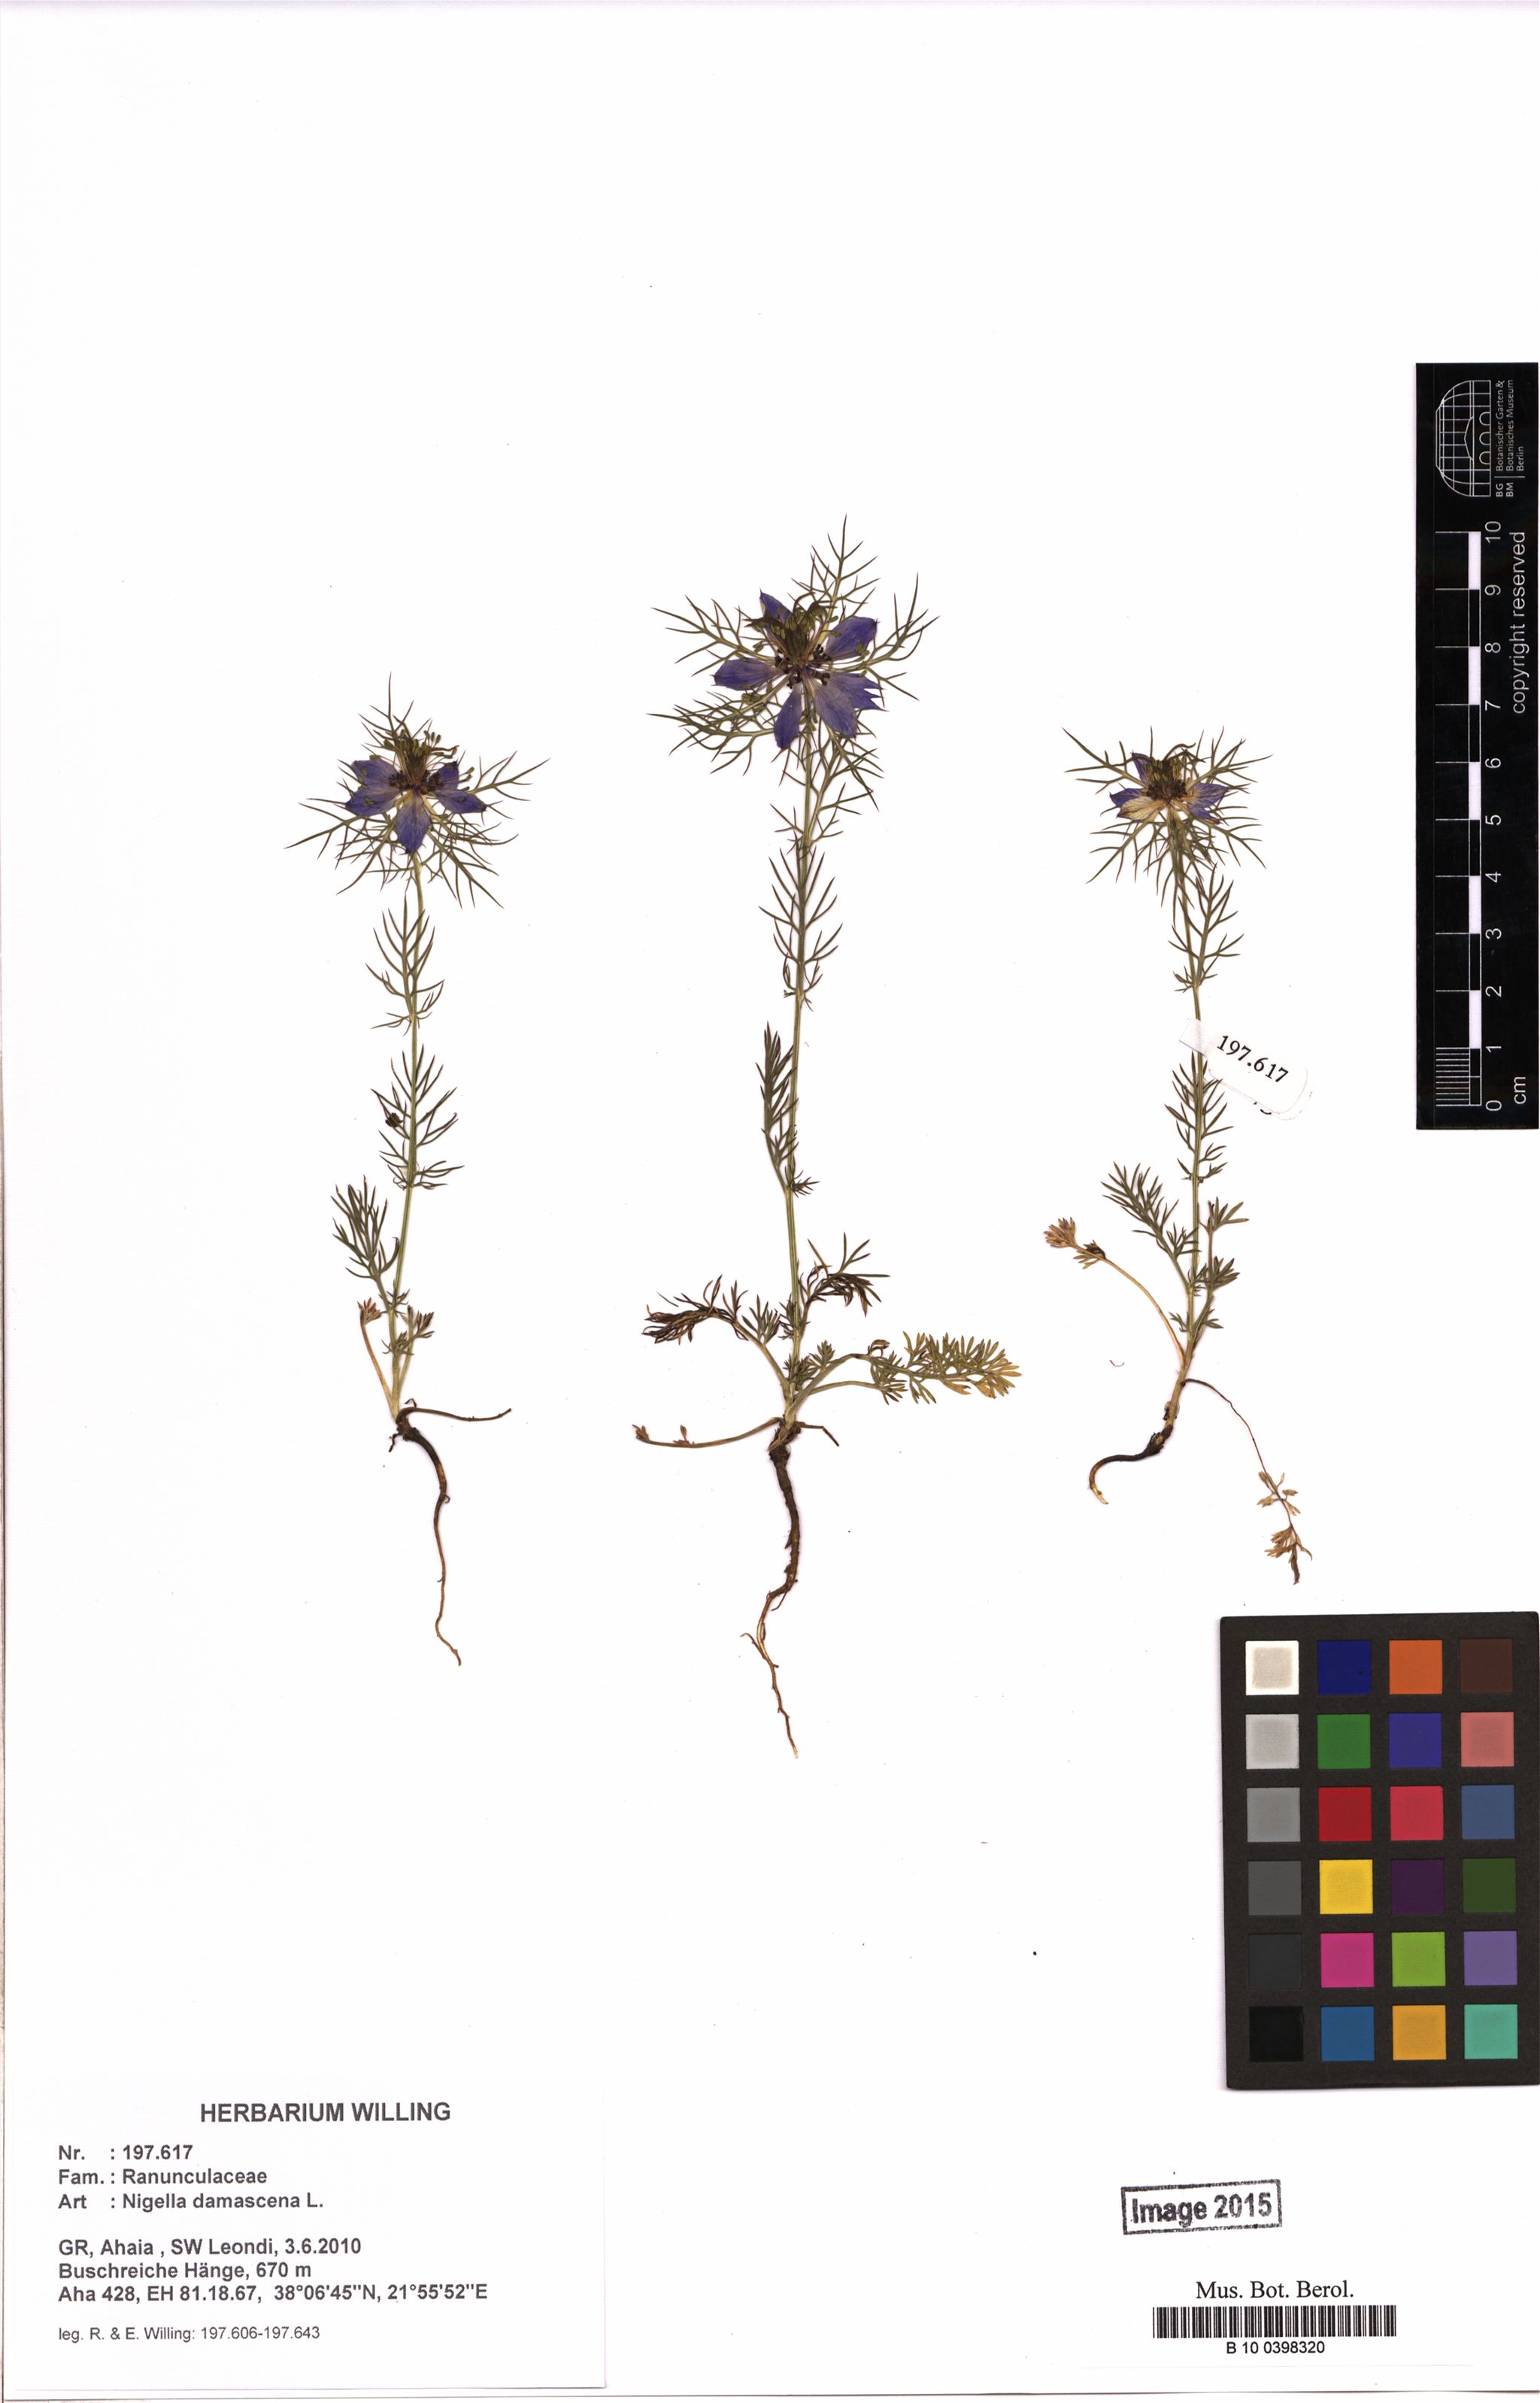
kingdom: Plantae
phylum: Tracheophyta
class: Magnoliopsida
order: Ranunculales
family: Ranunculaceae
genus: Nigella
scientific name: Nigella damascena
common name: Love-in-a-mist
